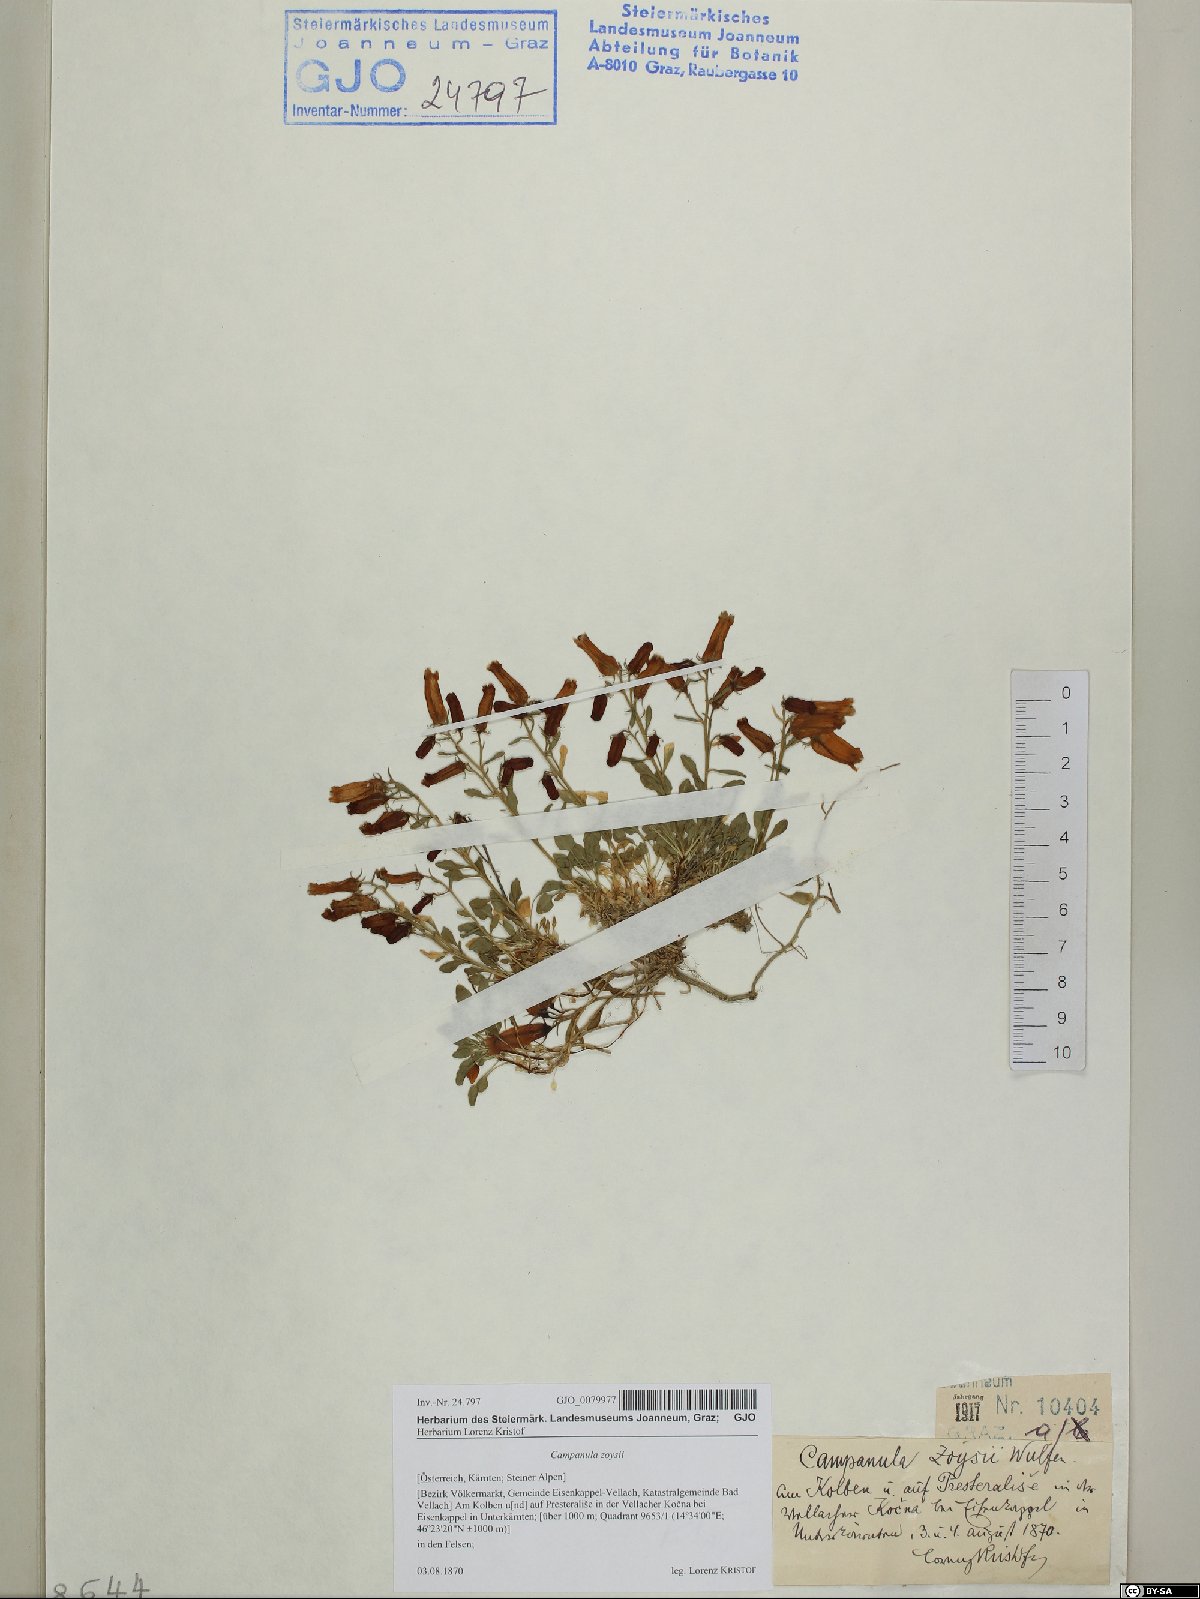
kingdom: Plantae
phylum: Tracheophyta
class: Magnoliopsida
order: Asterales
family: Campanulaceae
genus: Favratia
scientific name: Favratia zoysii
